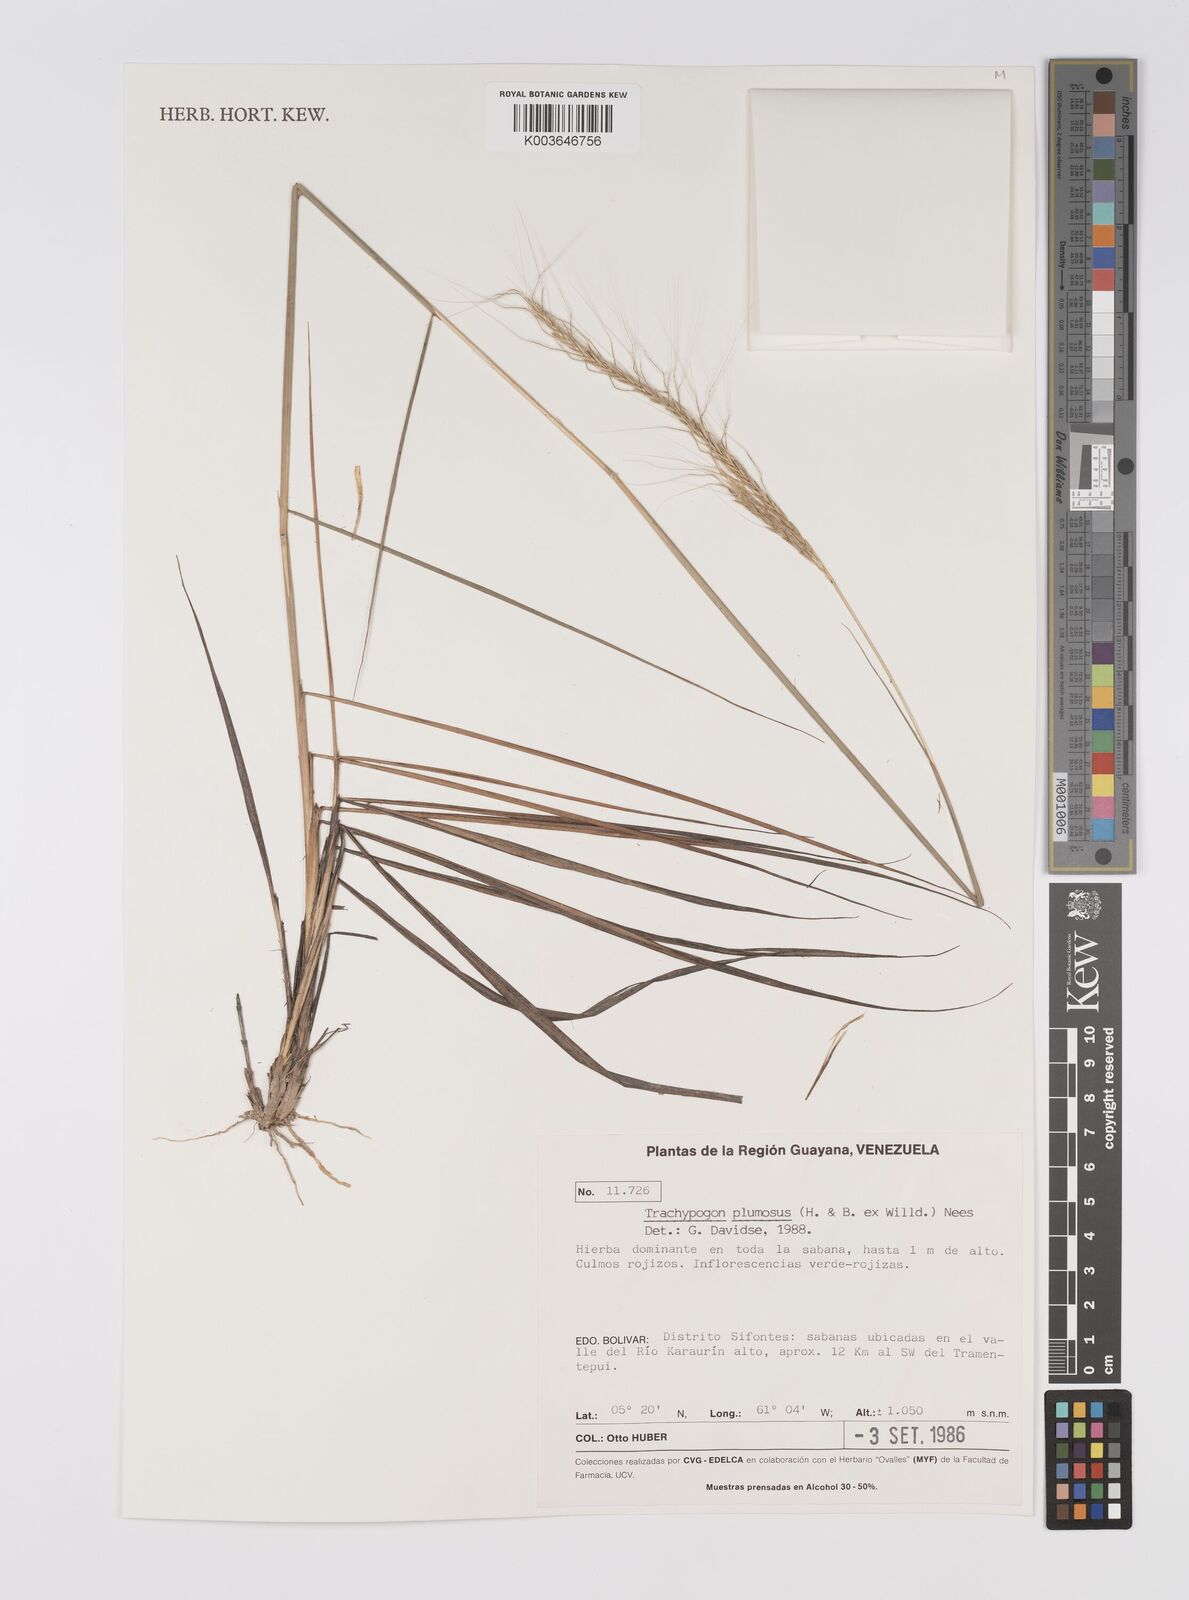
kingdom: Plantae
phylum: Tracheophyta
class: Liliopsida
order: Poales
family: Poaceae
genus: Trachypogon
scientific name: Trachypogon spicatus
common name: Crinkle-awn
